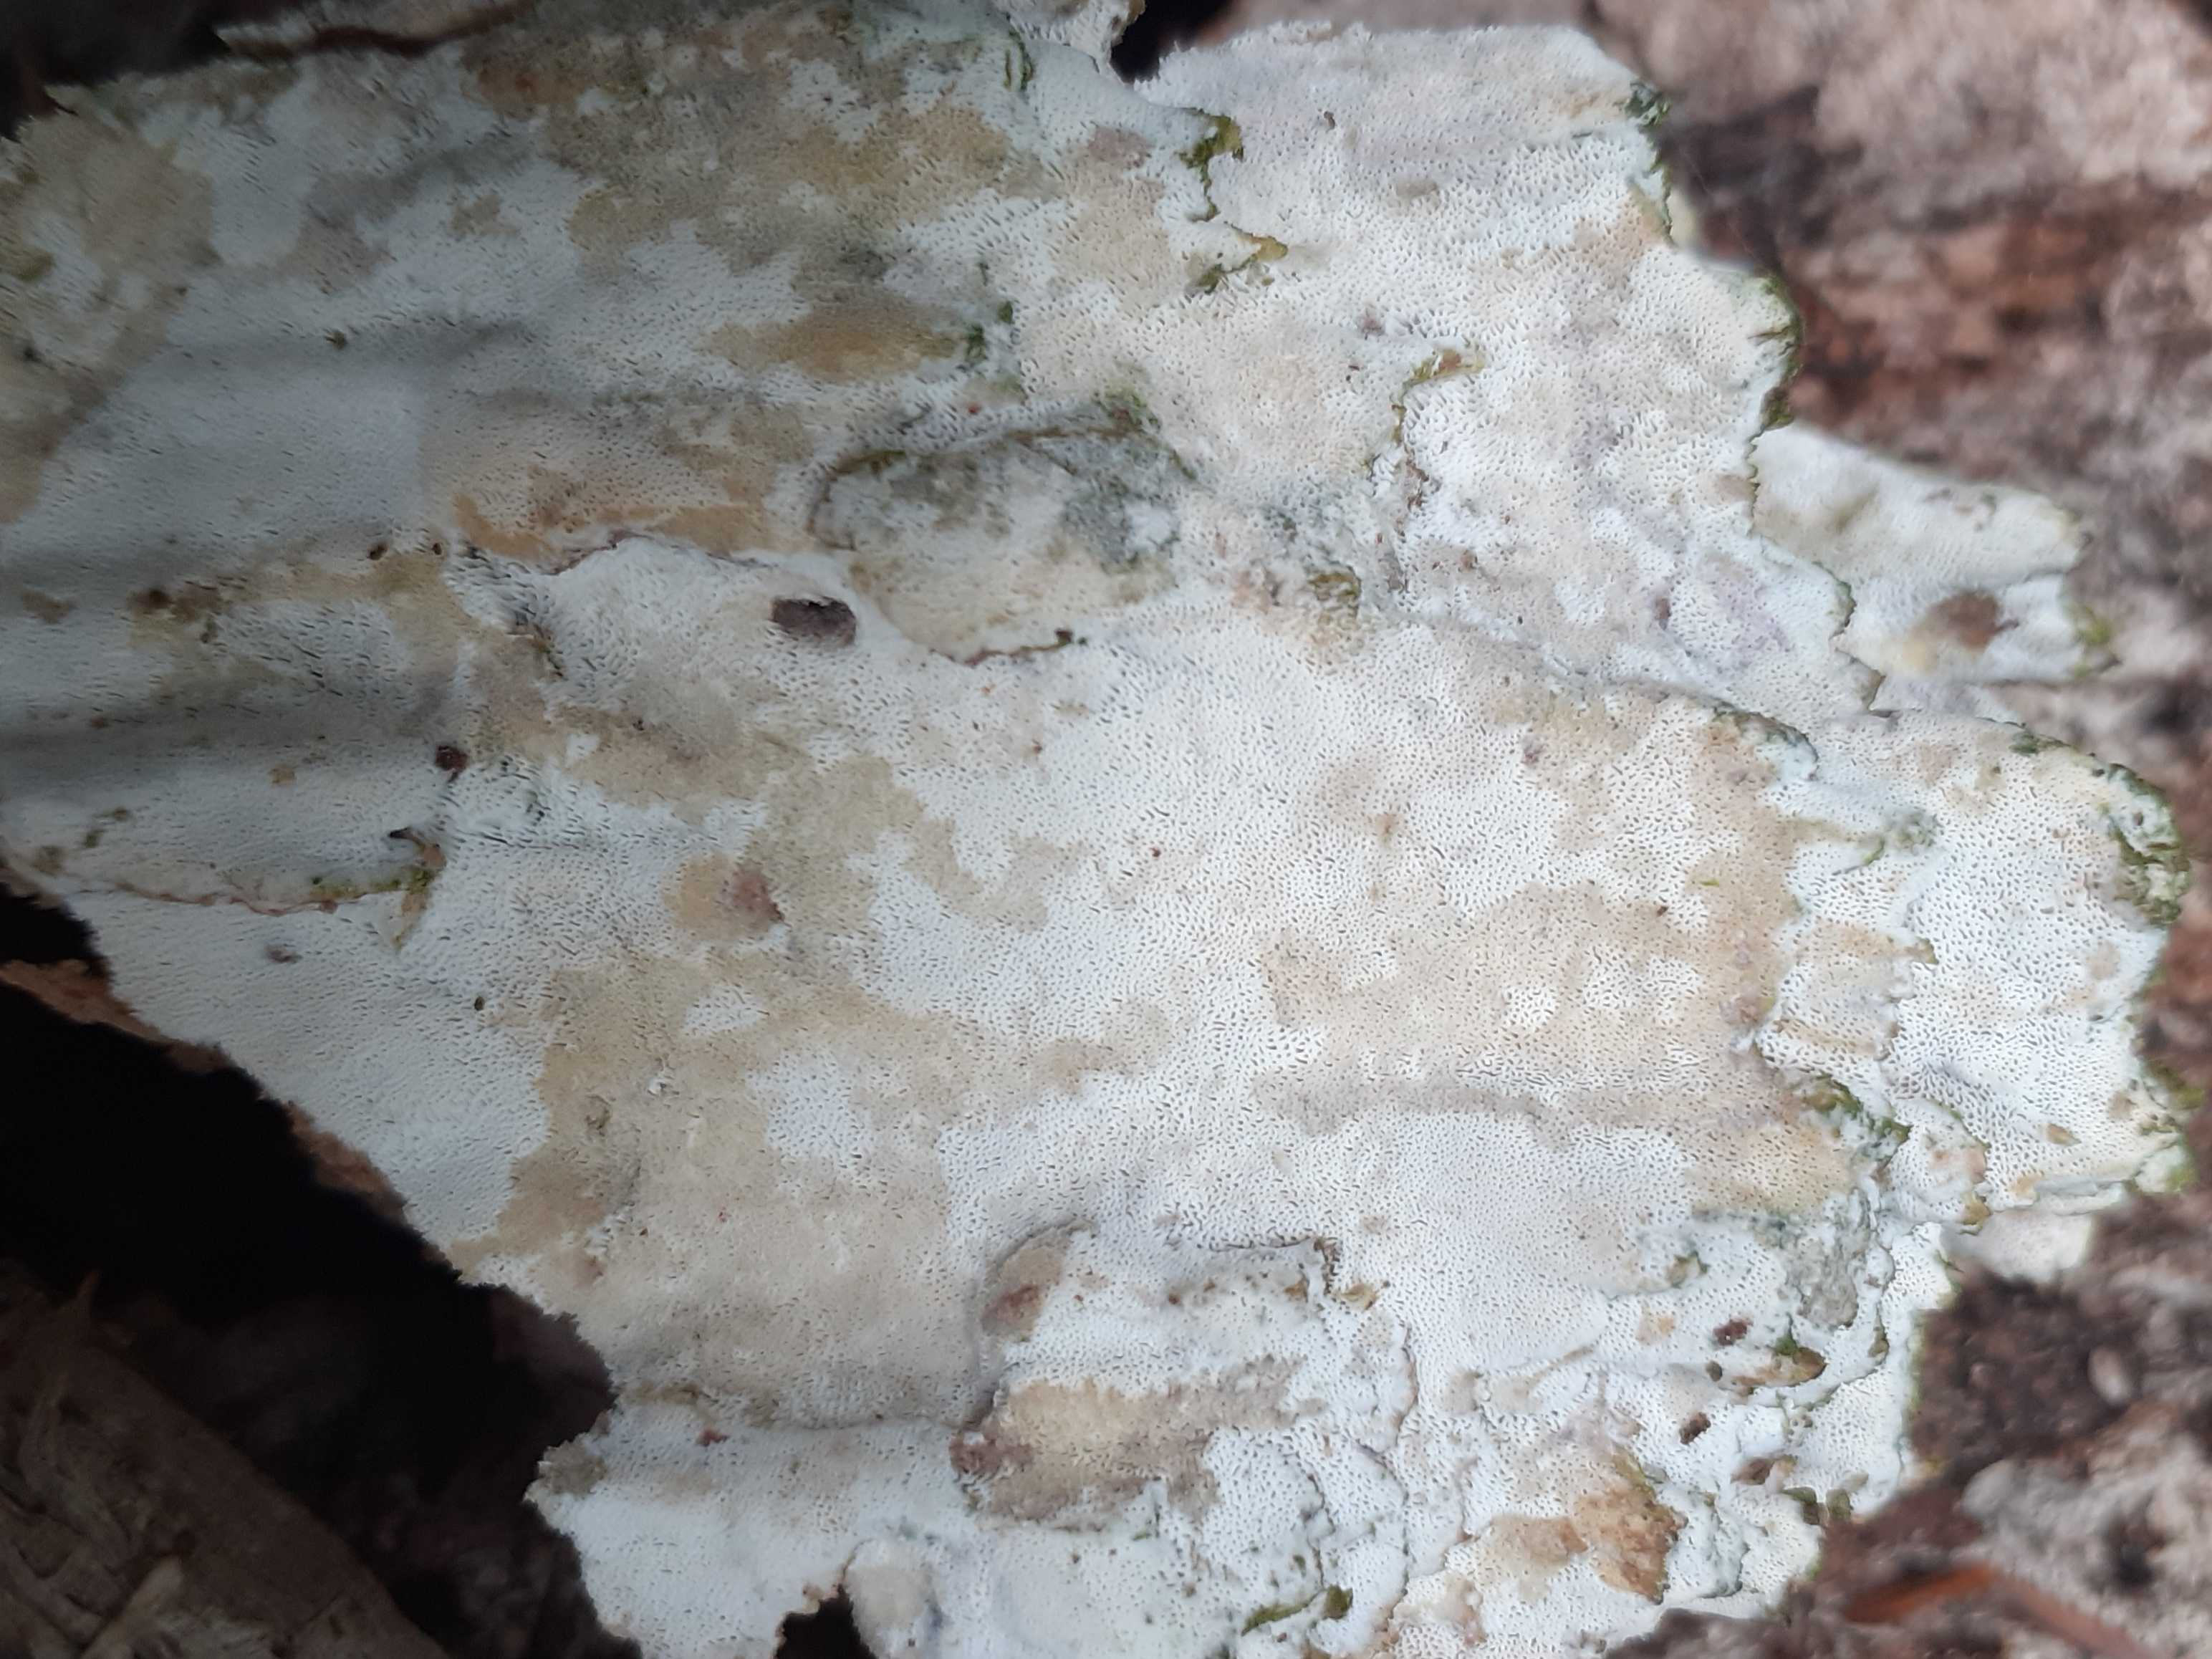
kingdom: Fungi
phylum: Basidiomycota
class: Agaricomycetes
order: Hymenochaetales
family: Rickenellaceae
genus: Sidera
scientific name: Sidera vulgaris
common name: fin flødeporesvamp
